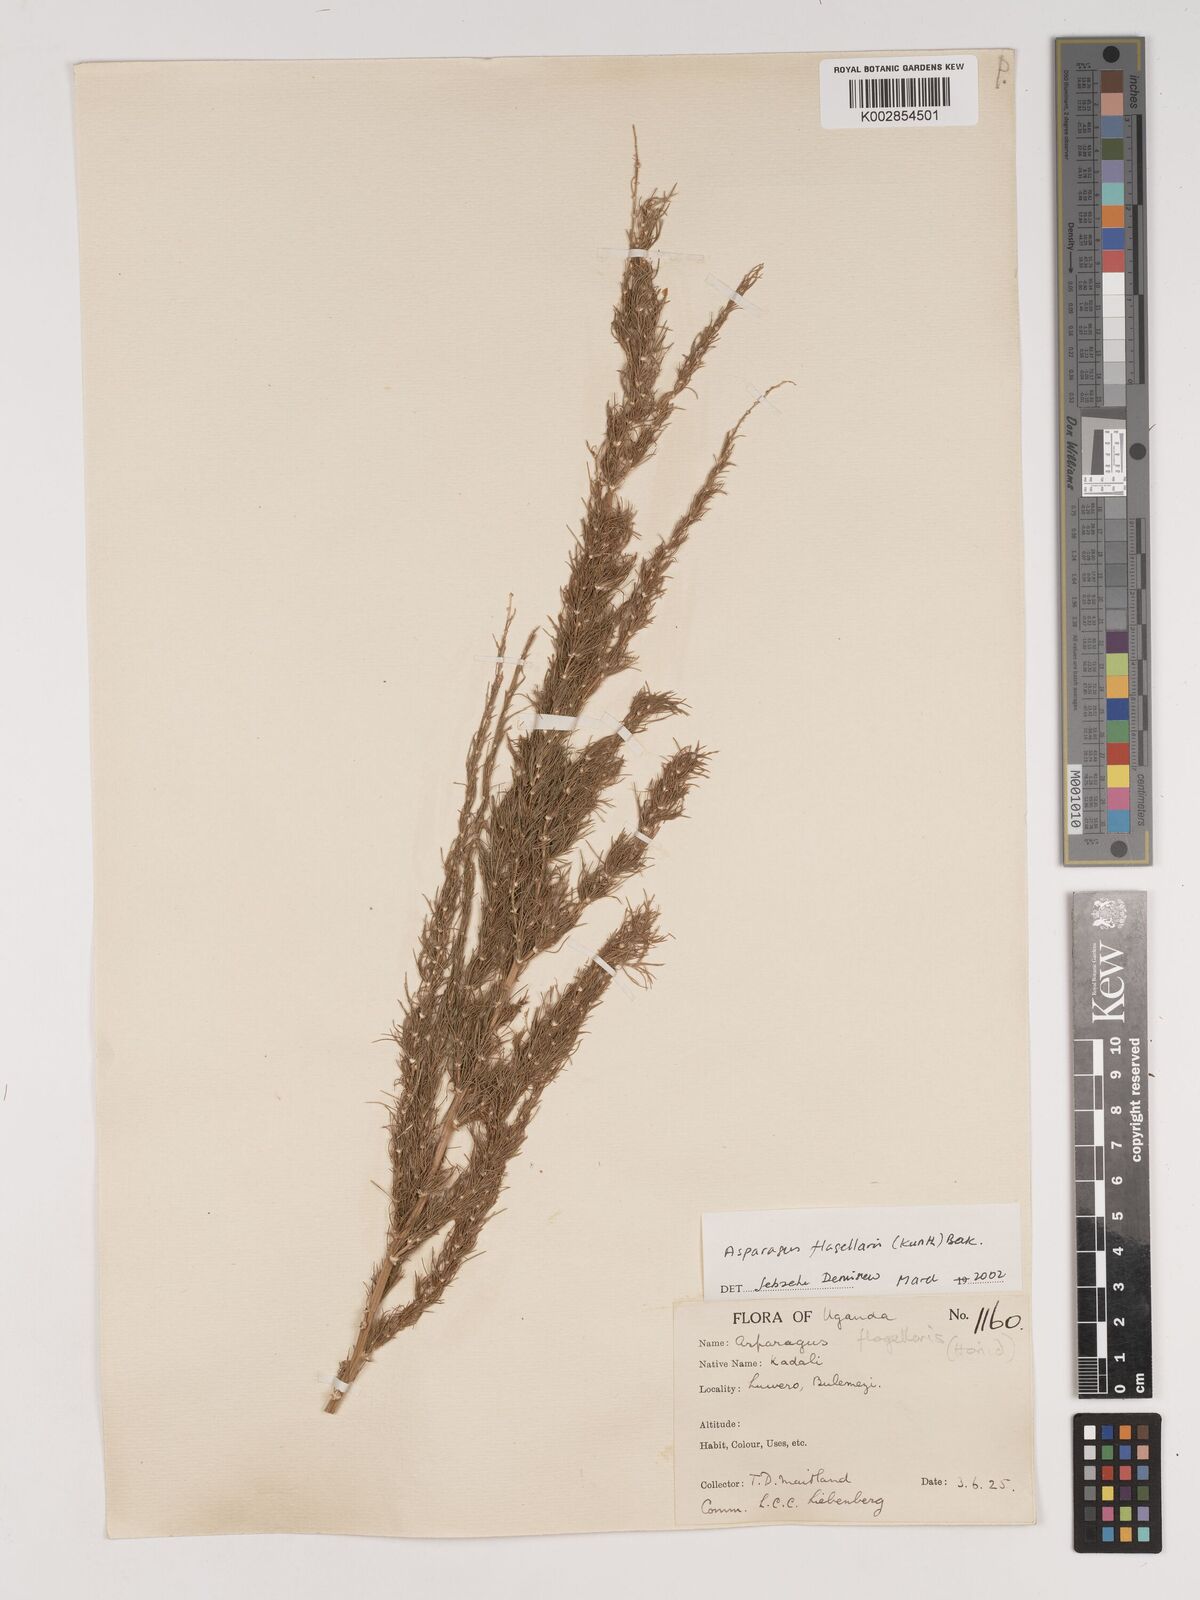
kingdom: Plantae
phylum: Tracheophyta
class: Liliopsida
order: Asparagales
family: Asparagaceae
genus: Asparagus
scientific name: Asparagus flagellaris
